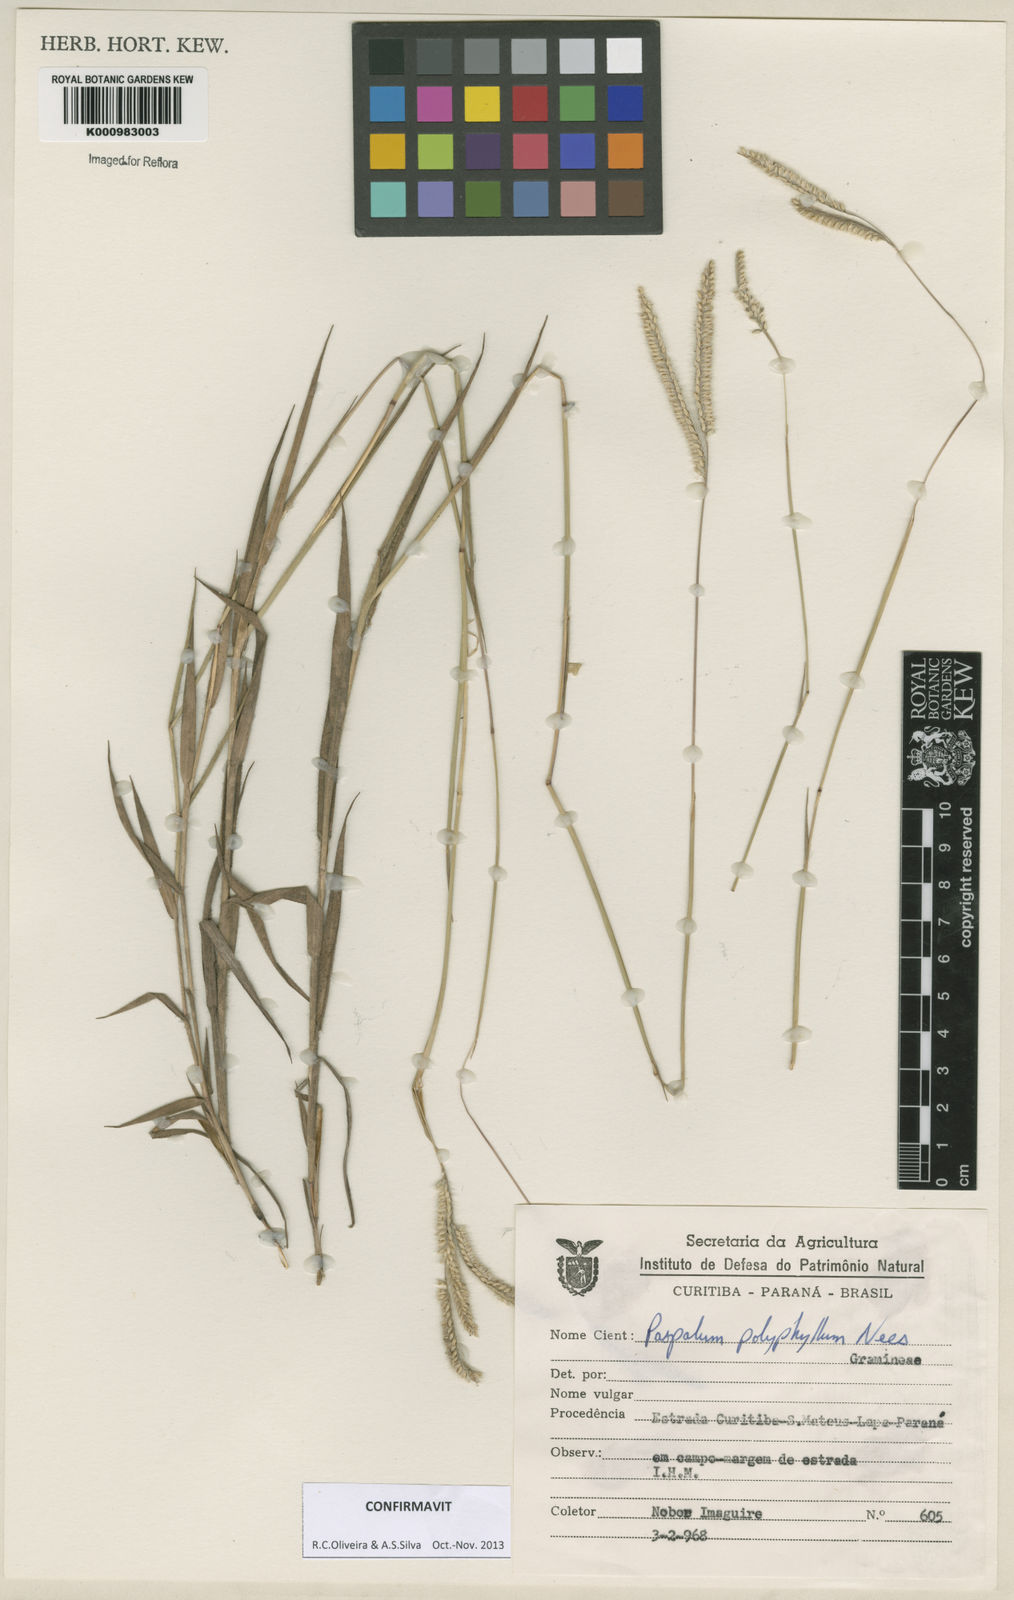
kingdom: Plantae
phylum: Tracheophyta
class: Liliopsida
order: Poales
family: Poaceae
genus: Paspalum
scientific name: Paspalum
